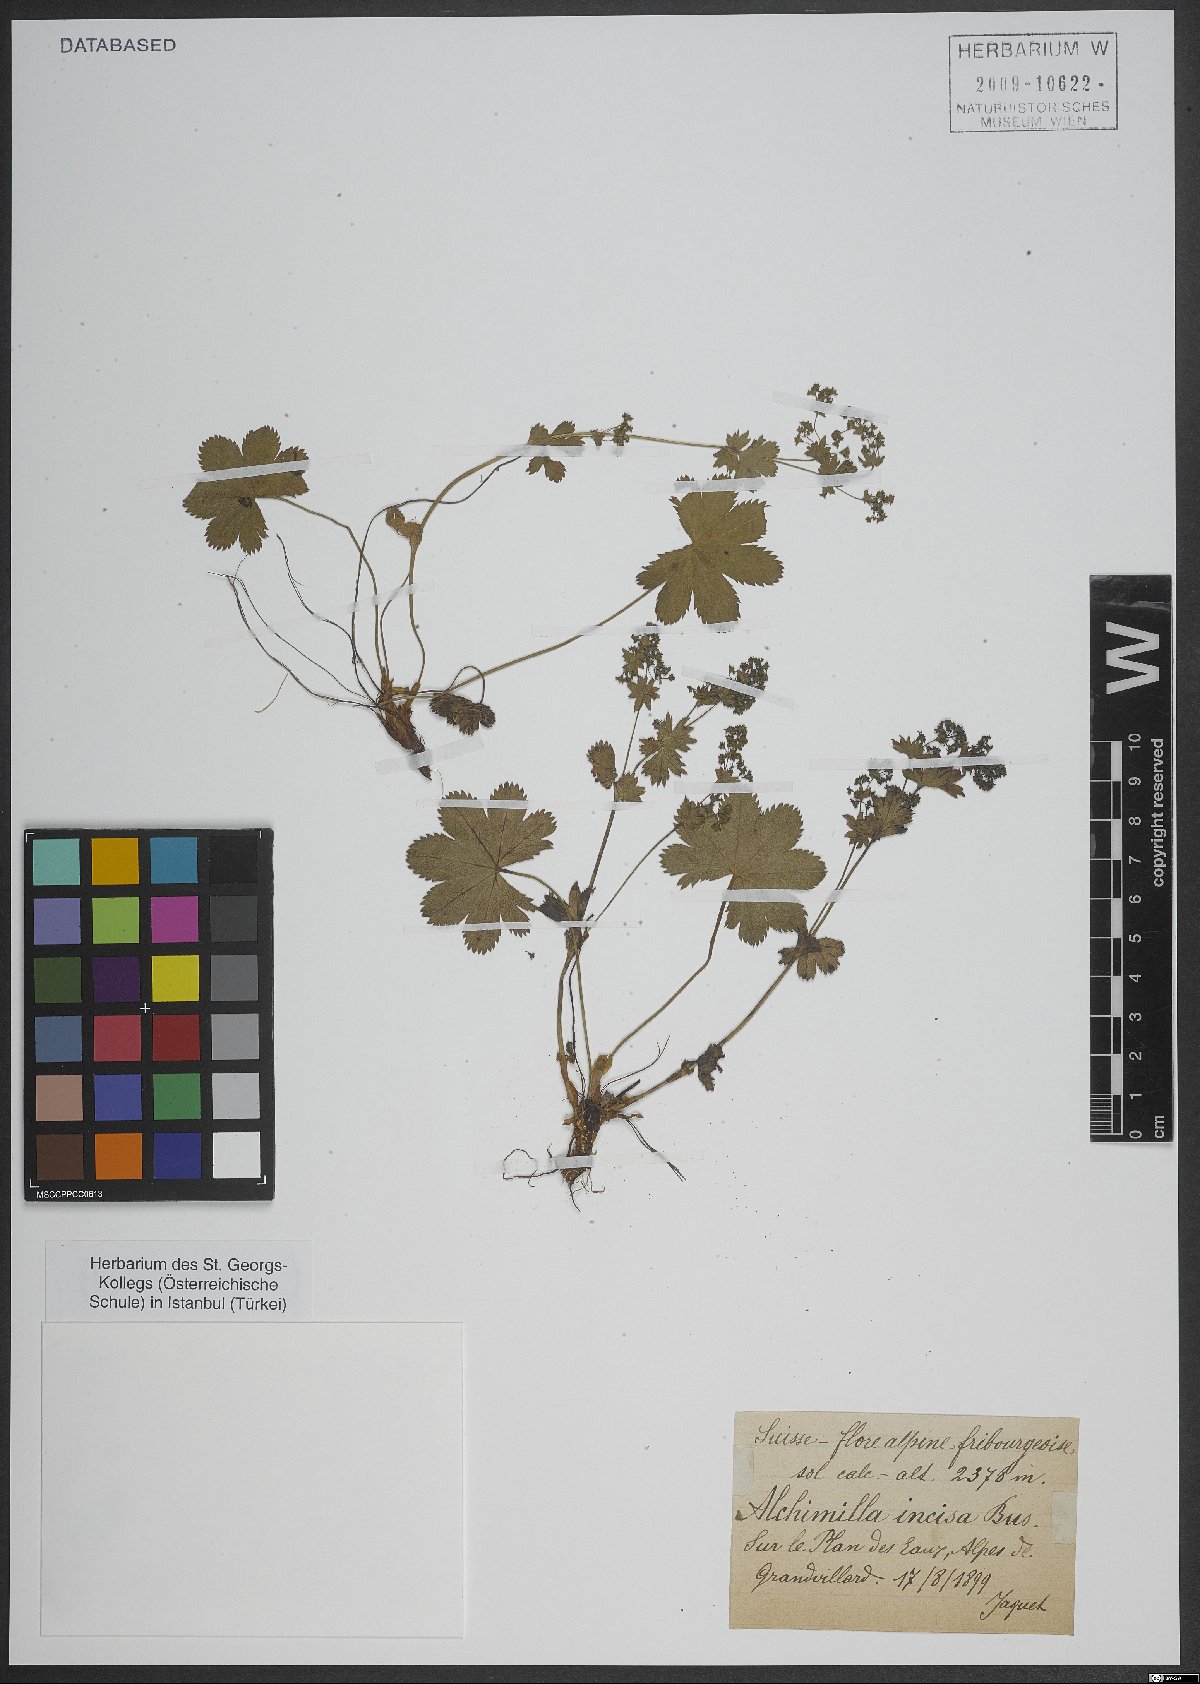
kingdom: Plantae
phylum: Tracheophyta
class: Magnoliopsida
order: Rosales
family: Rosaceae
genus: Alchemilla
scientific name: Alchemilla incisa
